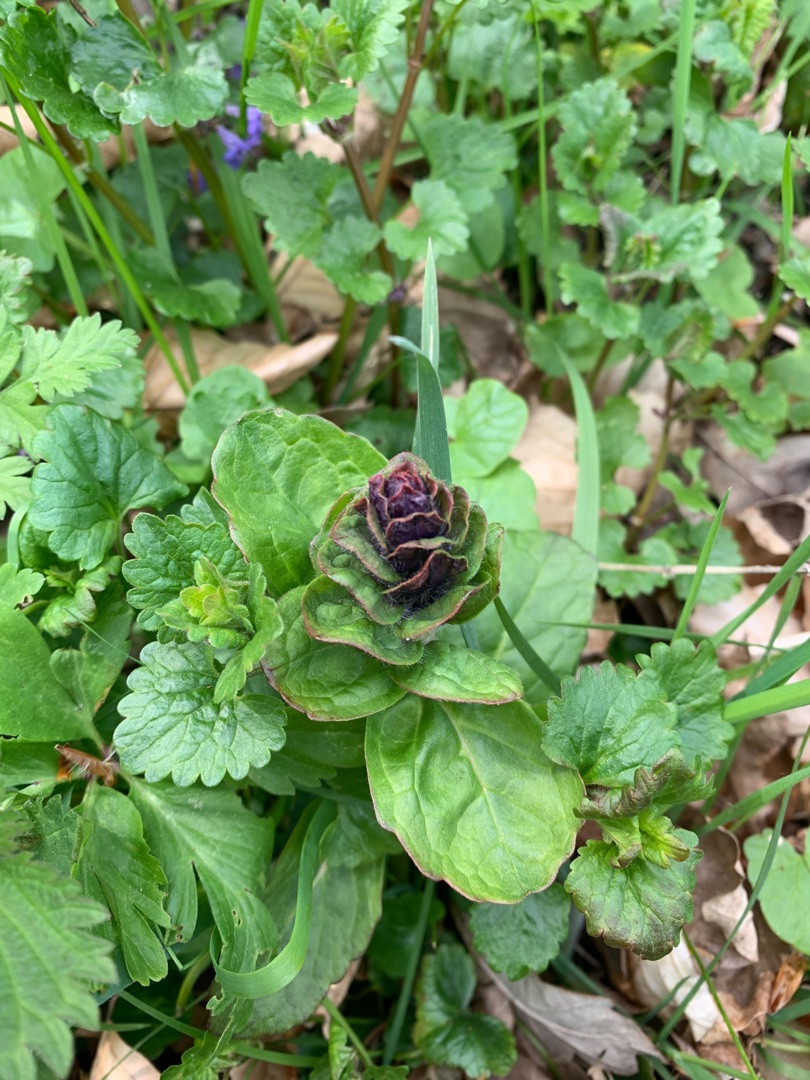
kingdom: Plantae
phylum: Tracheophyta
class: Magnoliopsida
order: Lamiales
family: Lamiaceae
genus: Ajuga
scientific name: Ajuga reptans
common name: Krybende læbeløs
